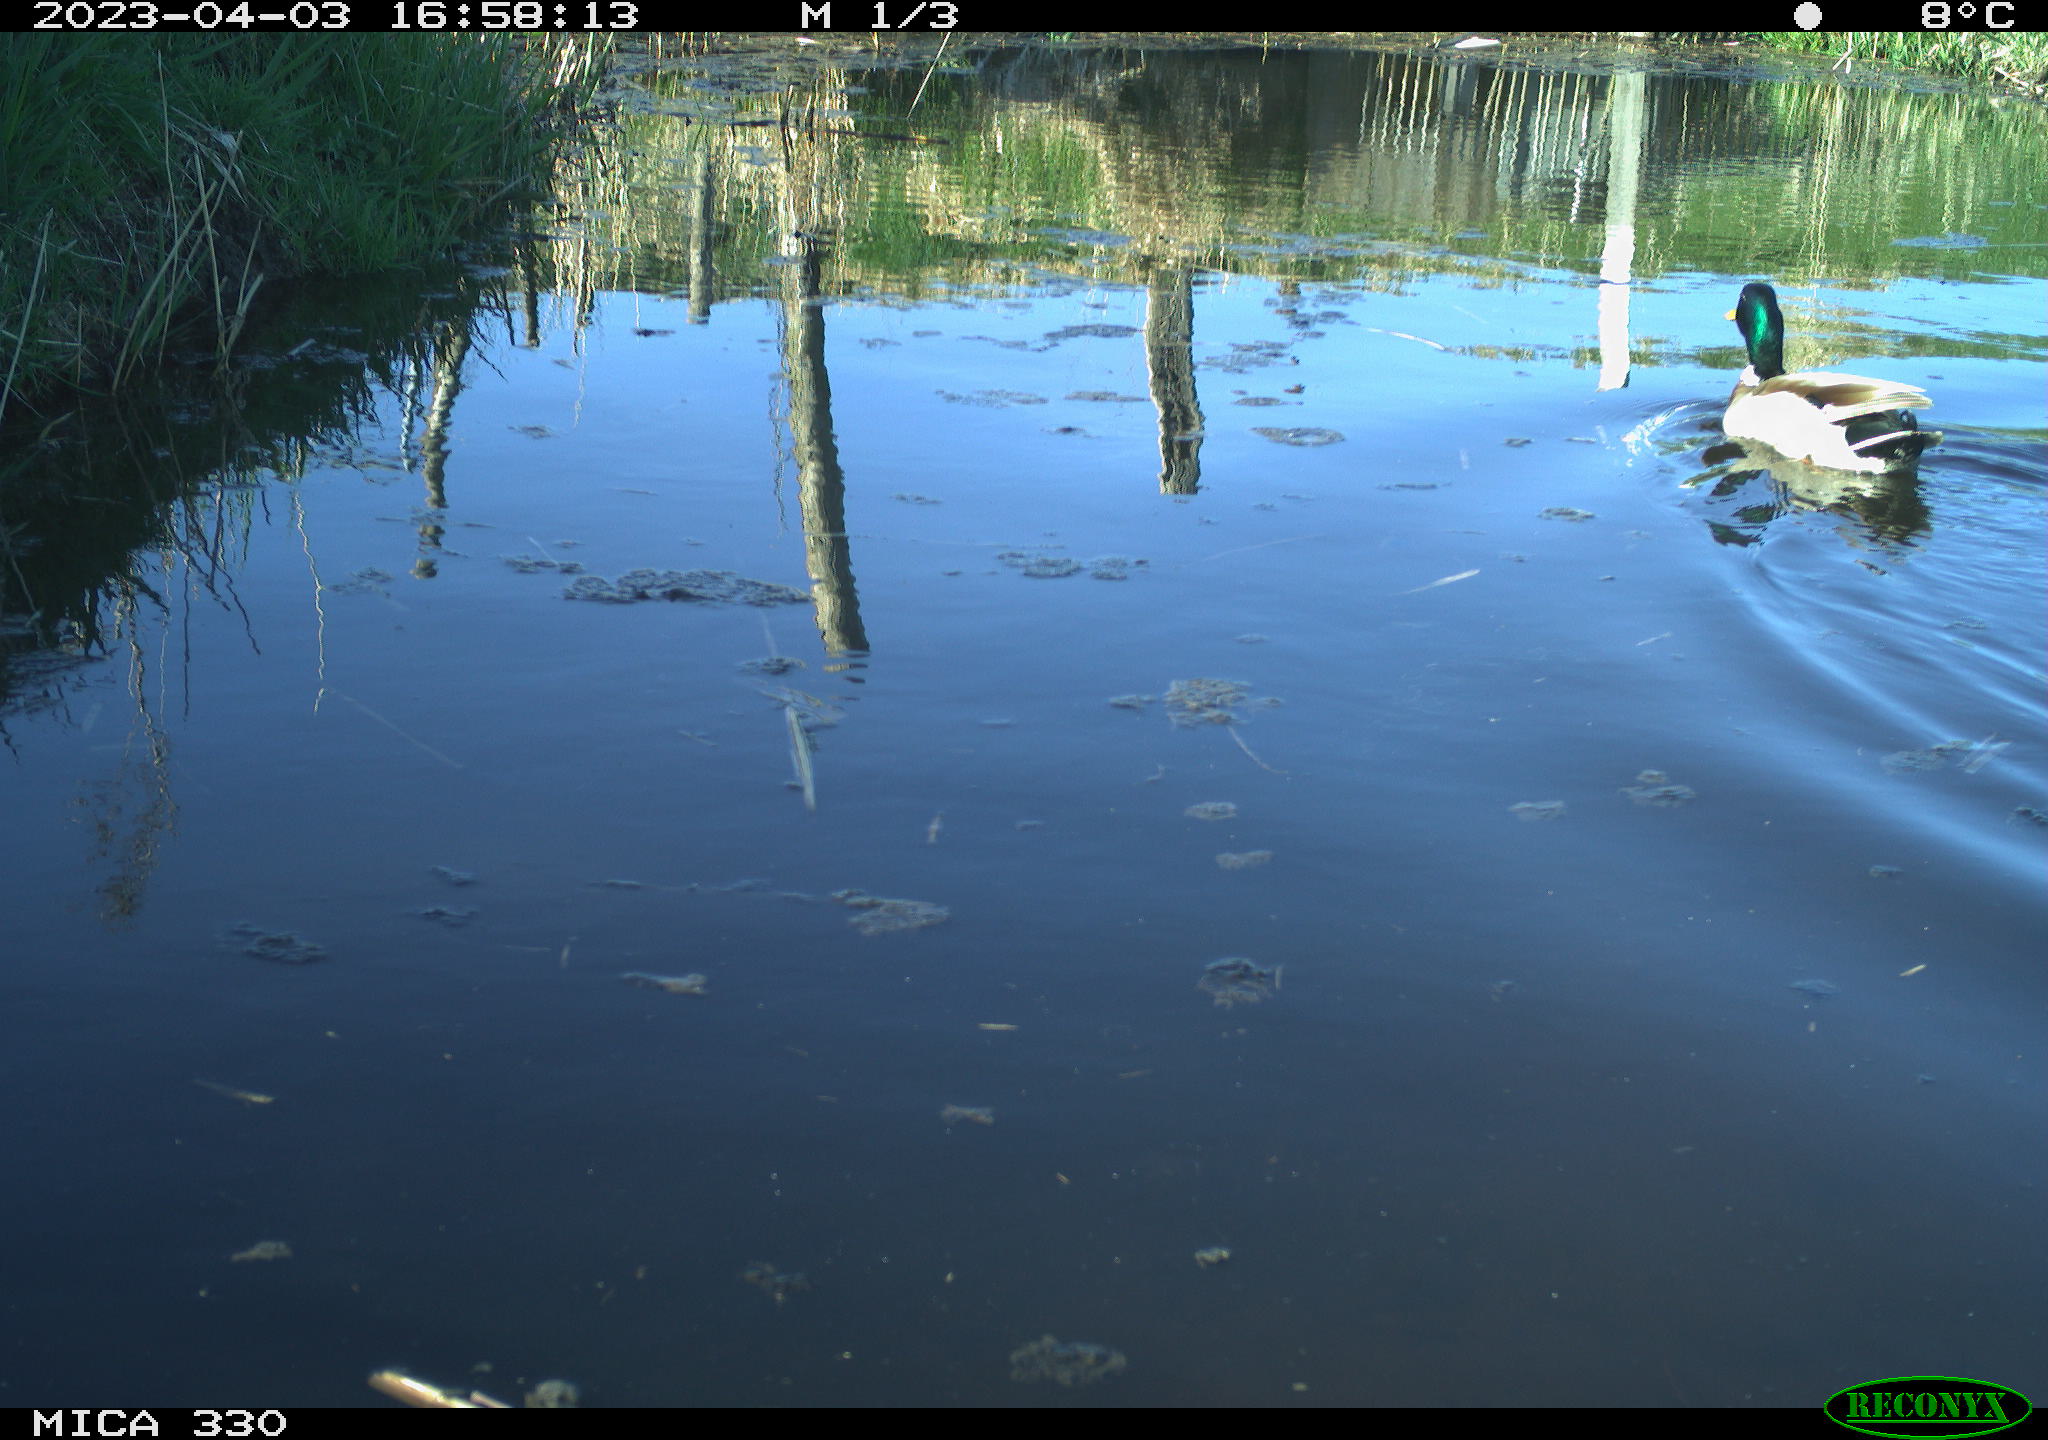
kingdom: Animalia
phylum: Chordata
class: Aves
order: Anseriformes
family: Anatidae
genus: Anas
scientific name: Anas
